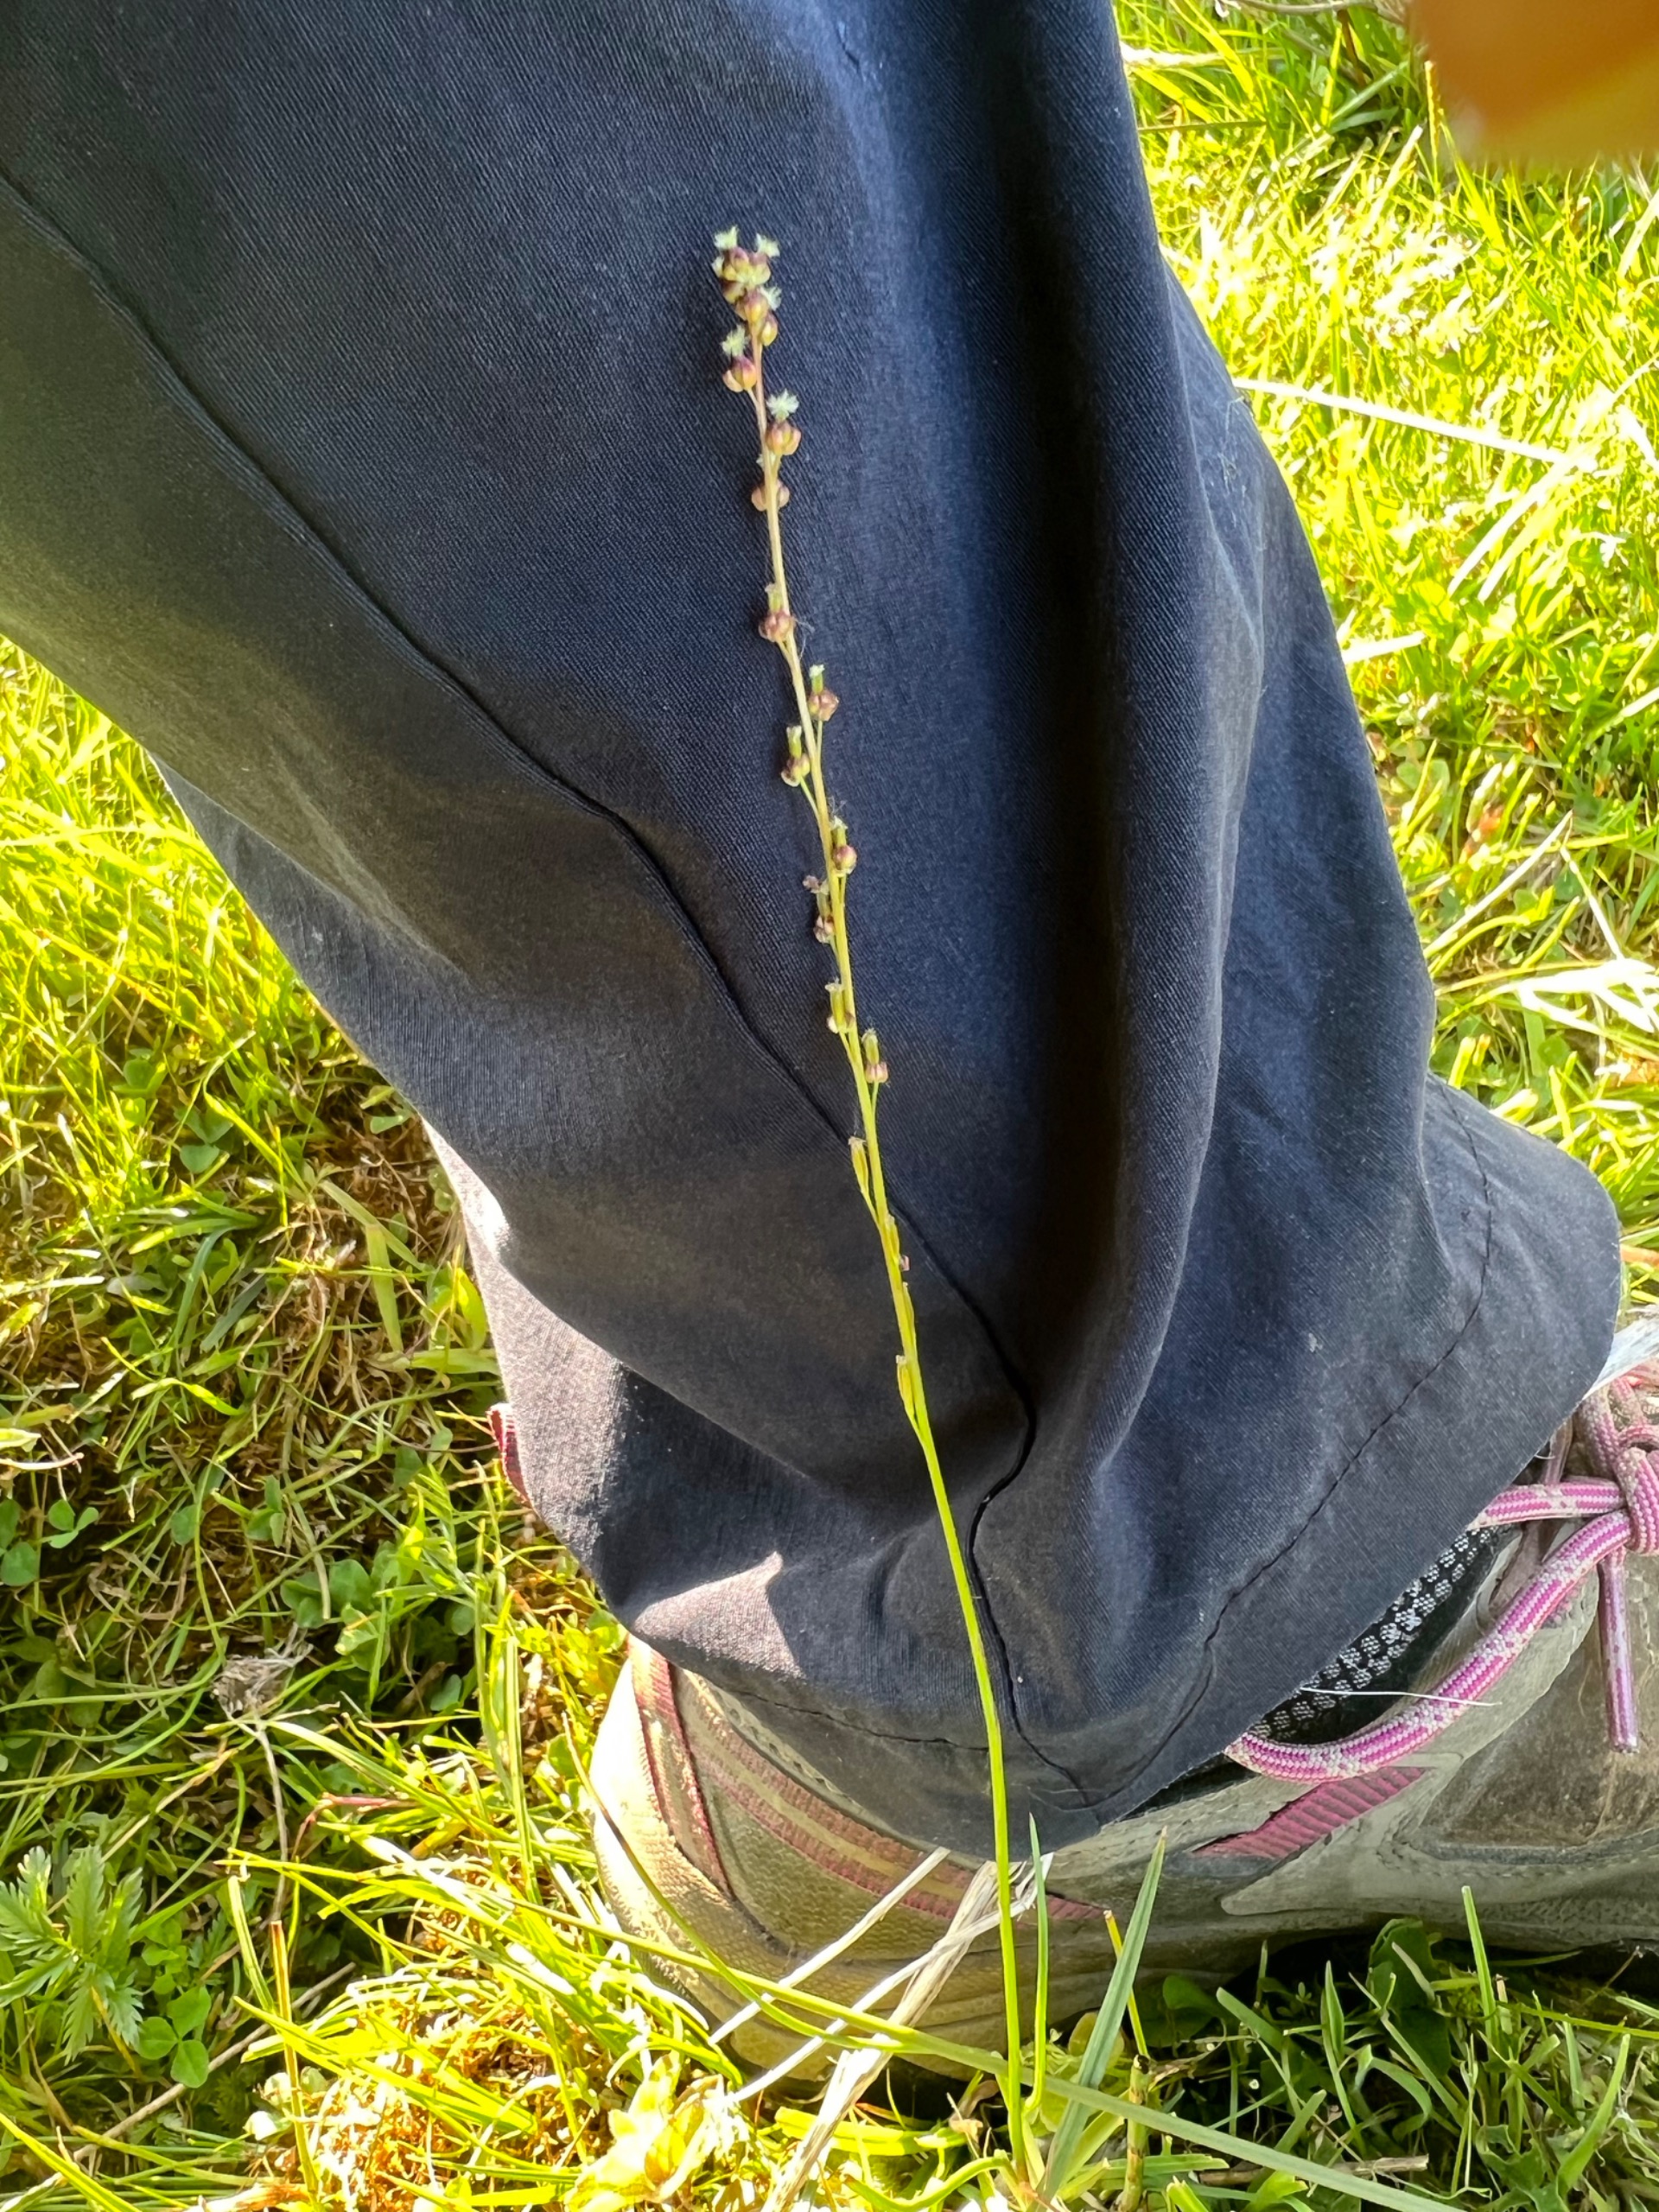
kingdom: Plantae
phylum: Tracheophyta
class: Liliopsida
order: Alismatales
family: Juncaginaceae
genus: Triglochin
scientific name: Triglochin palustris
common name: Kær-trehage
